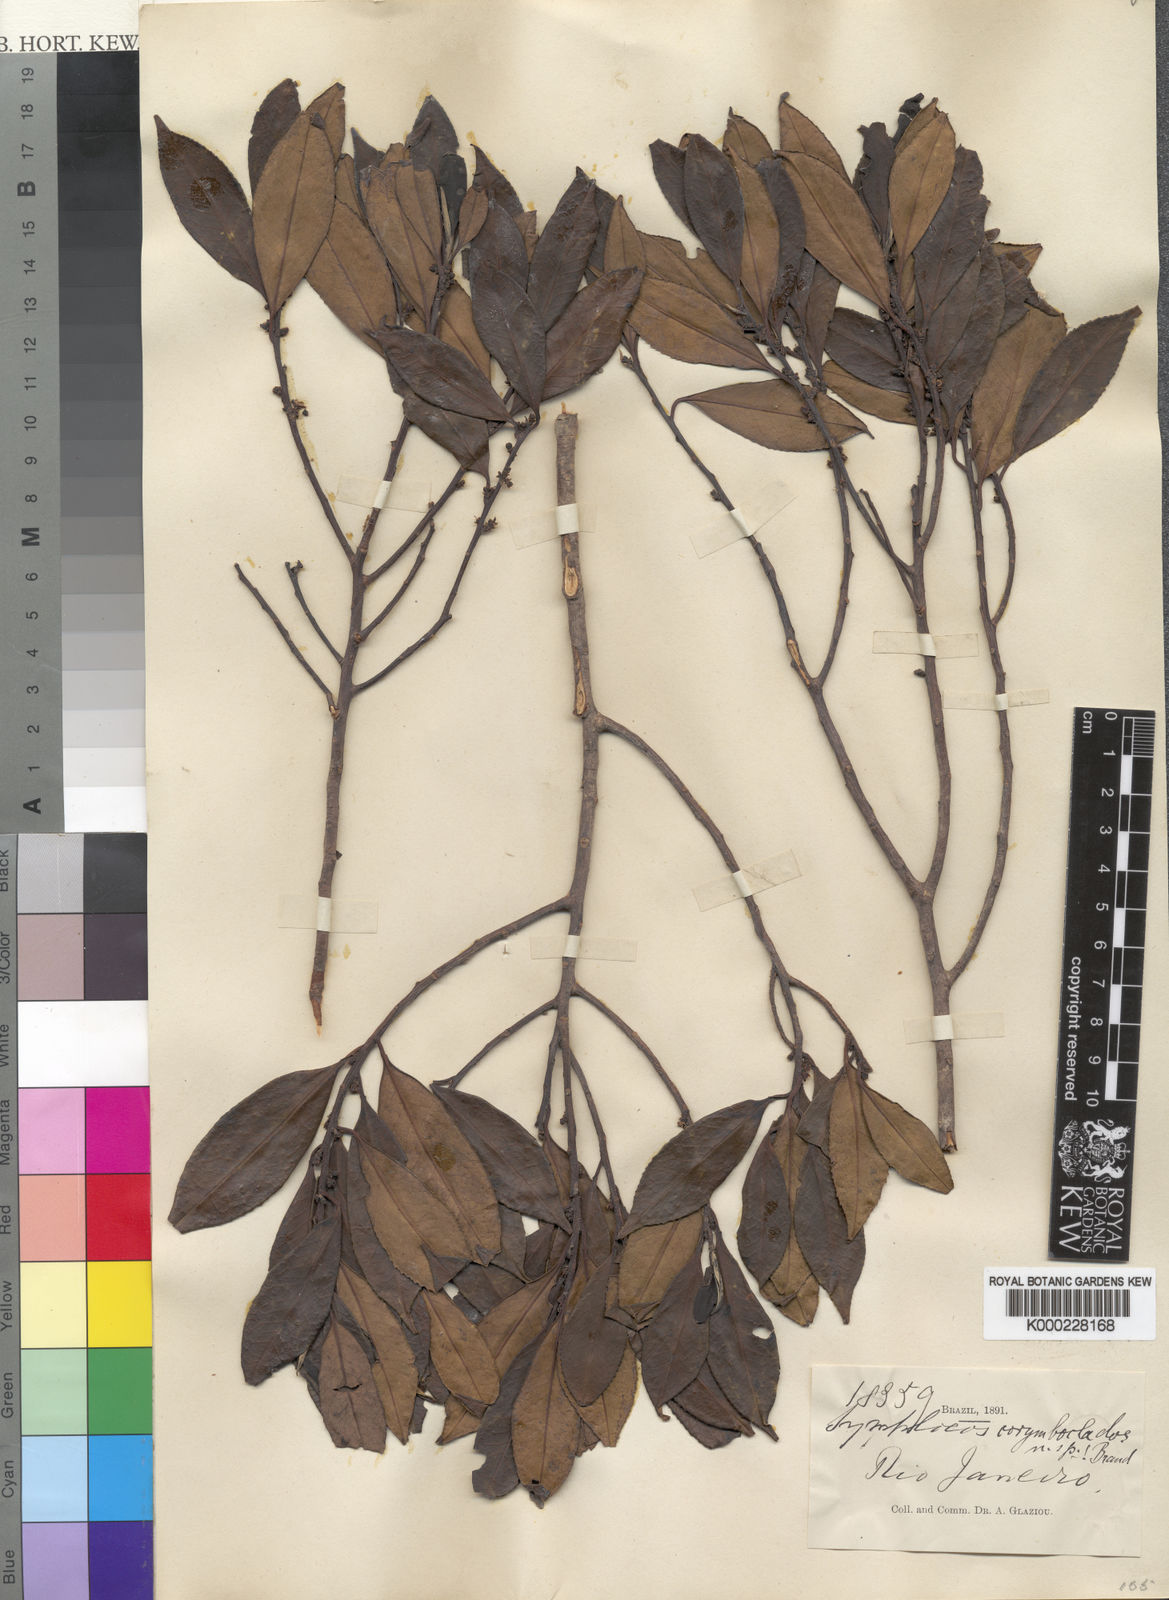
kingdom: Plantae
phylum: Tracheophyta
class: Magnoliopsida
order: Ericales
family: Symplocaceae
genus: Symplocos
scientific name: Symplocos corymboclados
